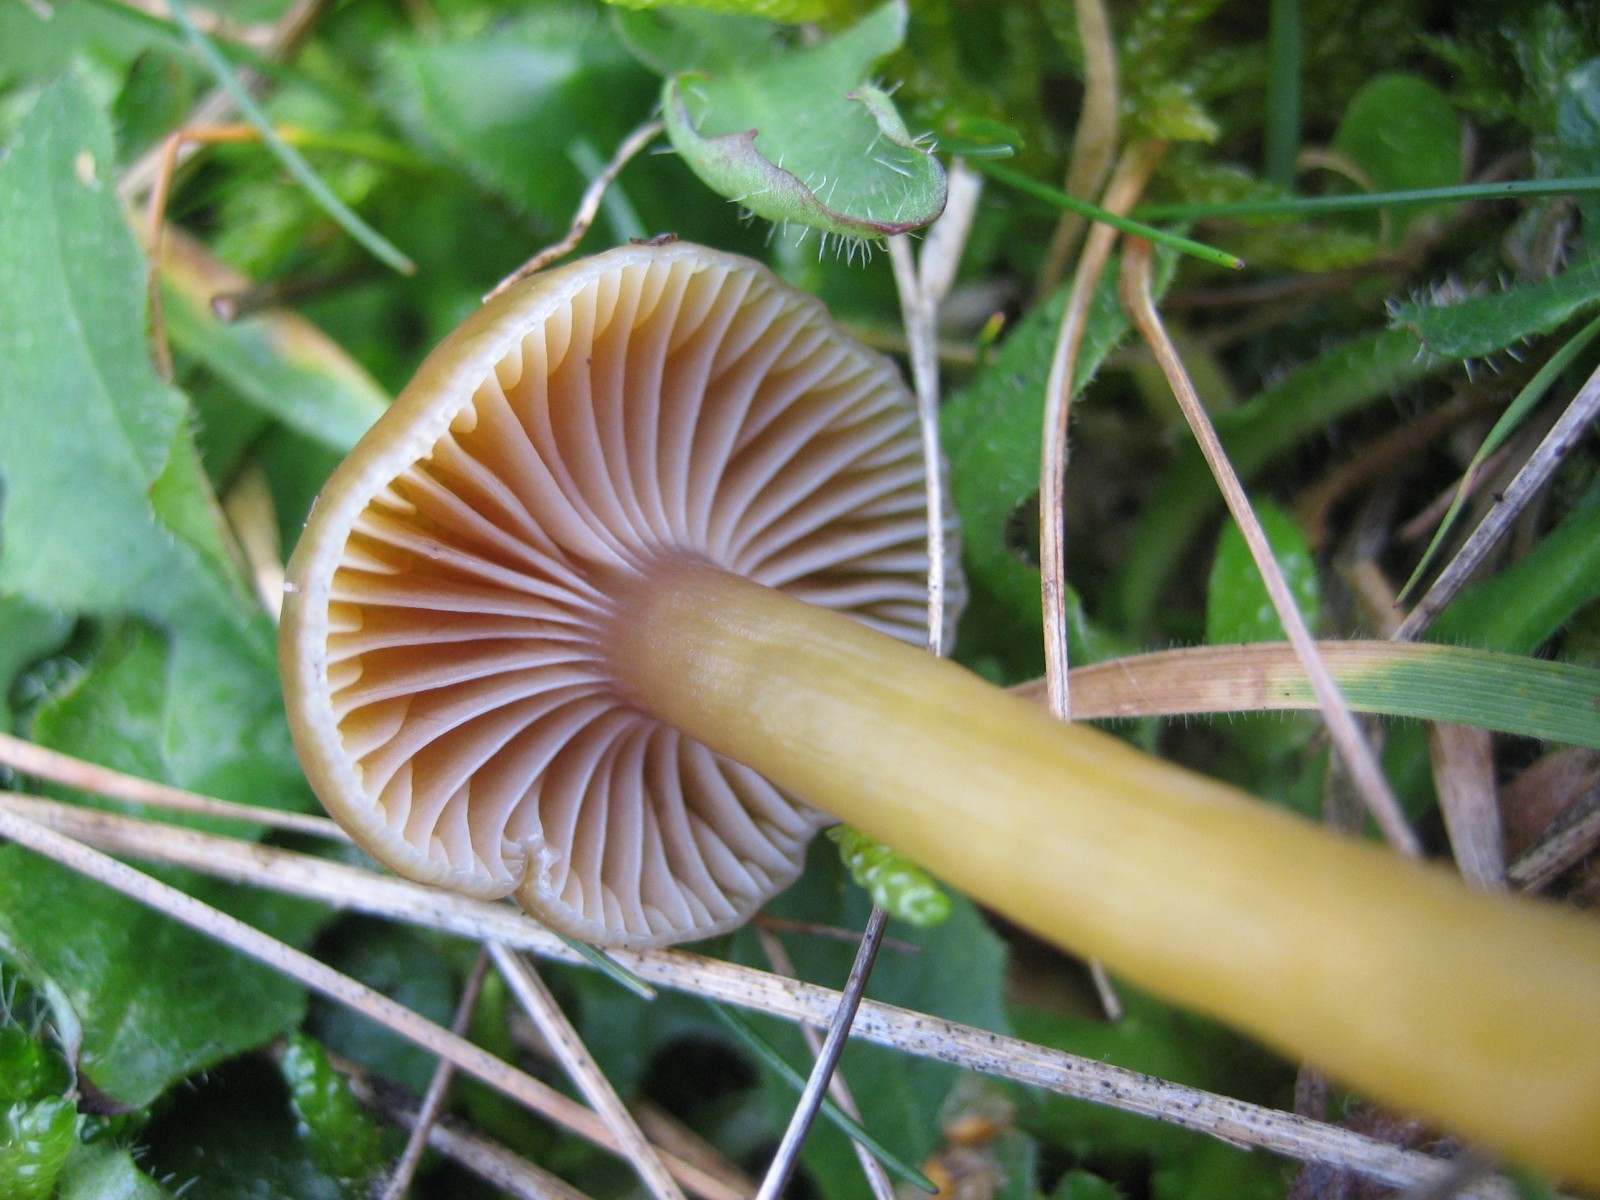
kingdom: Fungi
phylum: Basidiomycota
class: Agaricomycetes
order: Agaricales
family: Hygrophoraceae
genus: Gliophorus
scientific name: Gliophorus laetus
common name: brusk-vokshat
